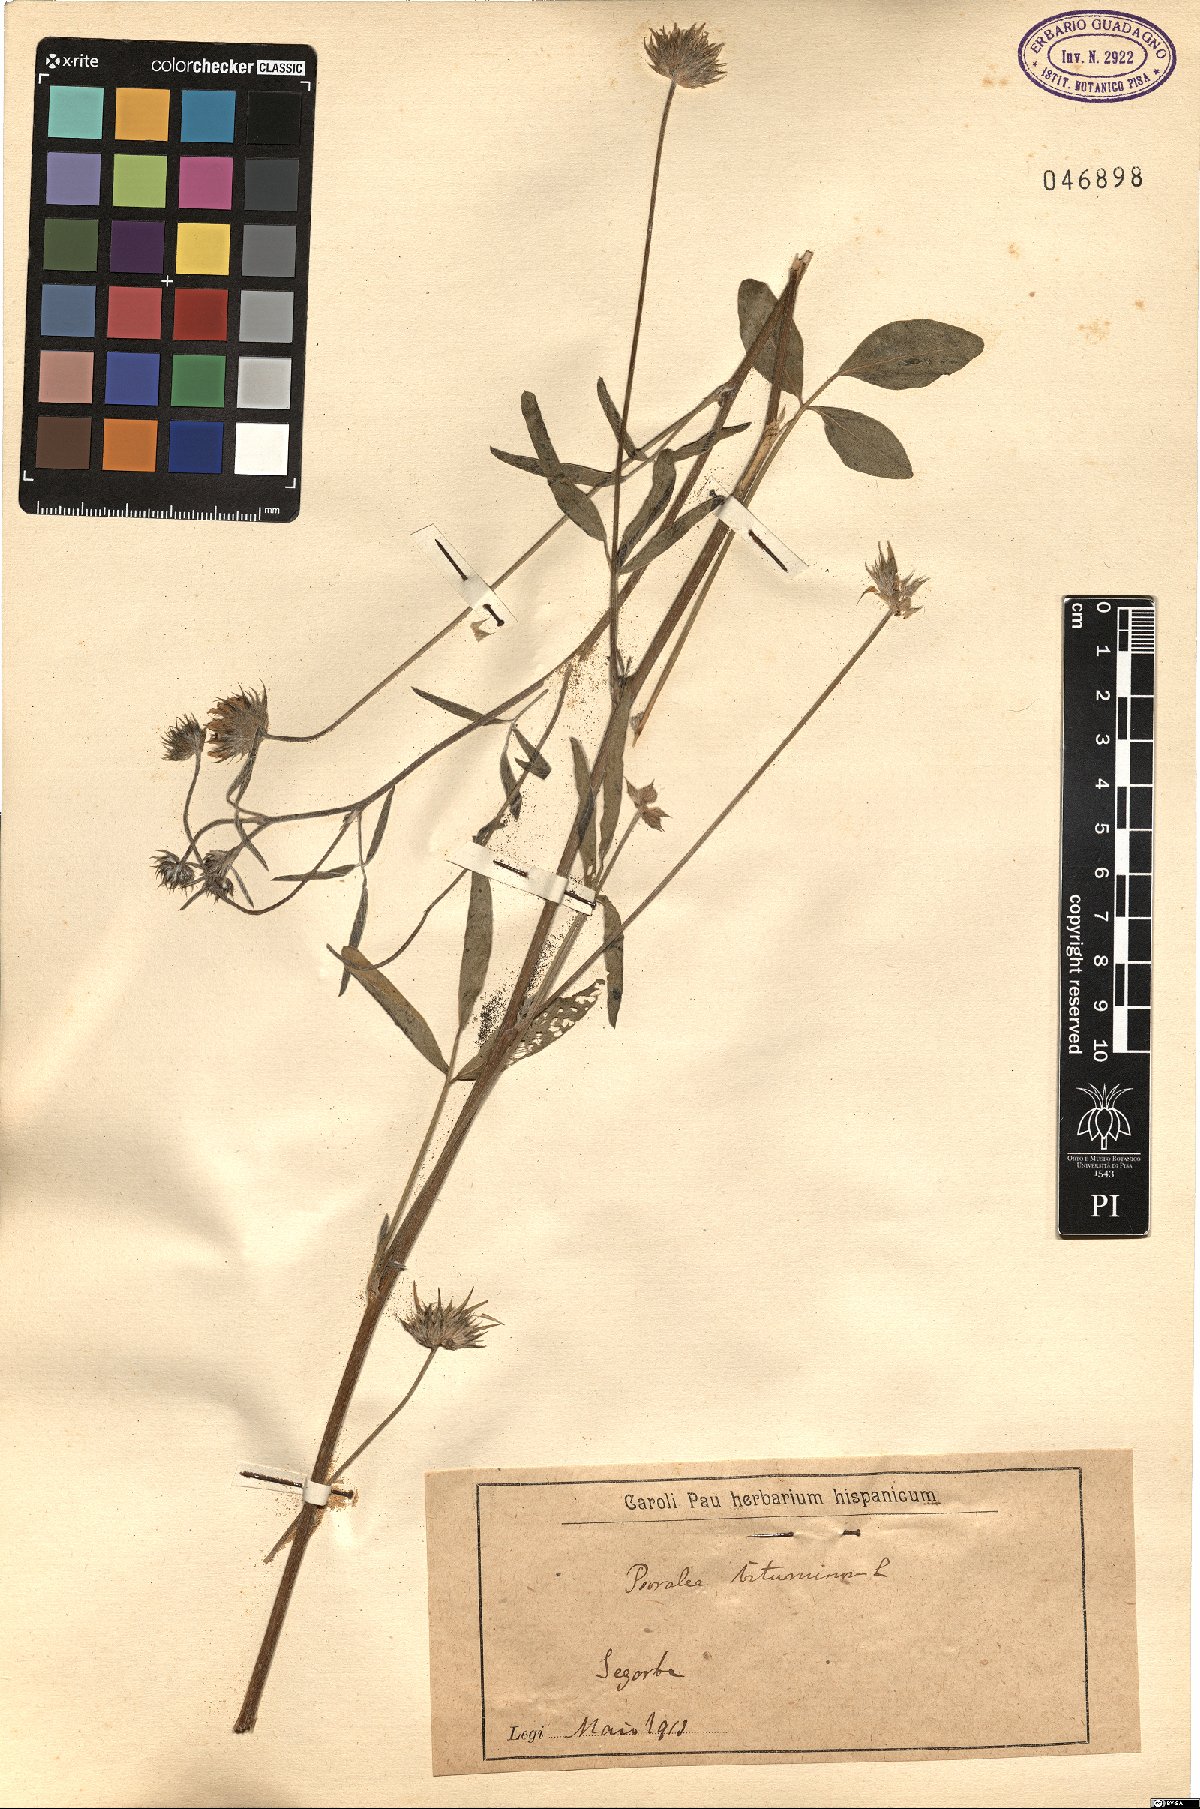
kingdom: Plantae
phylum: Tracheophyta
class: Magnoliopsida
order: Fabales
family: Fabaceae
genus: Bituminaria
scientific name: Bituminaria bituminosa
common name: Arabian pea
